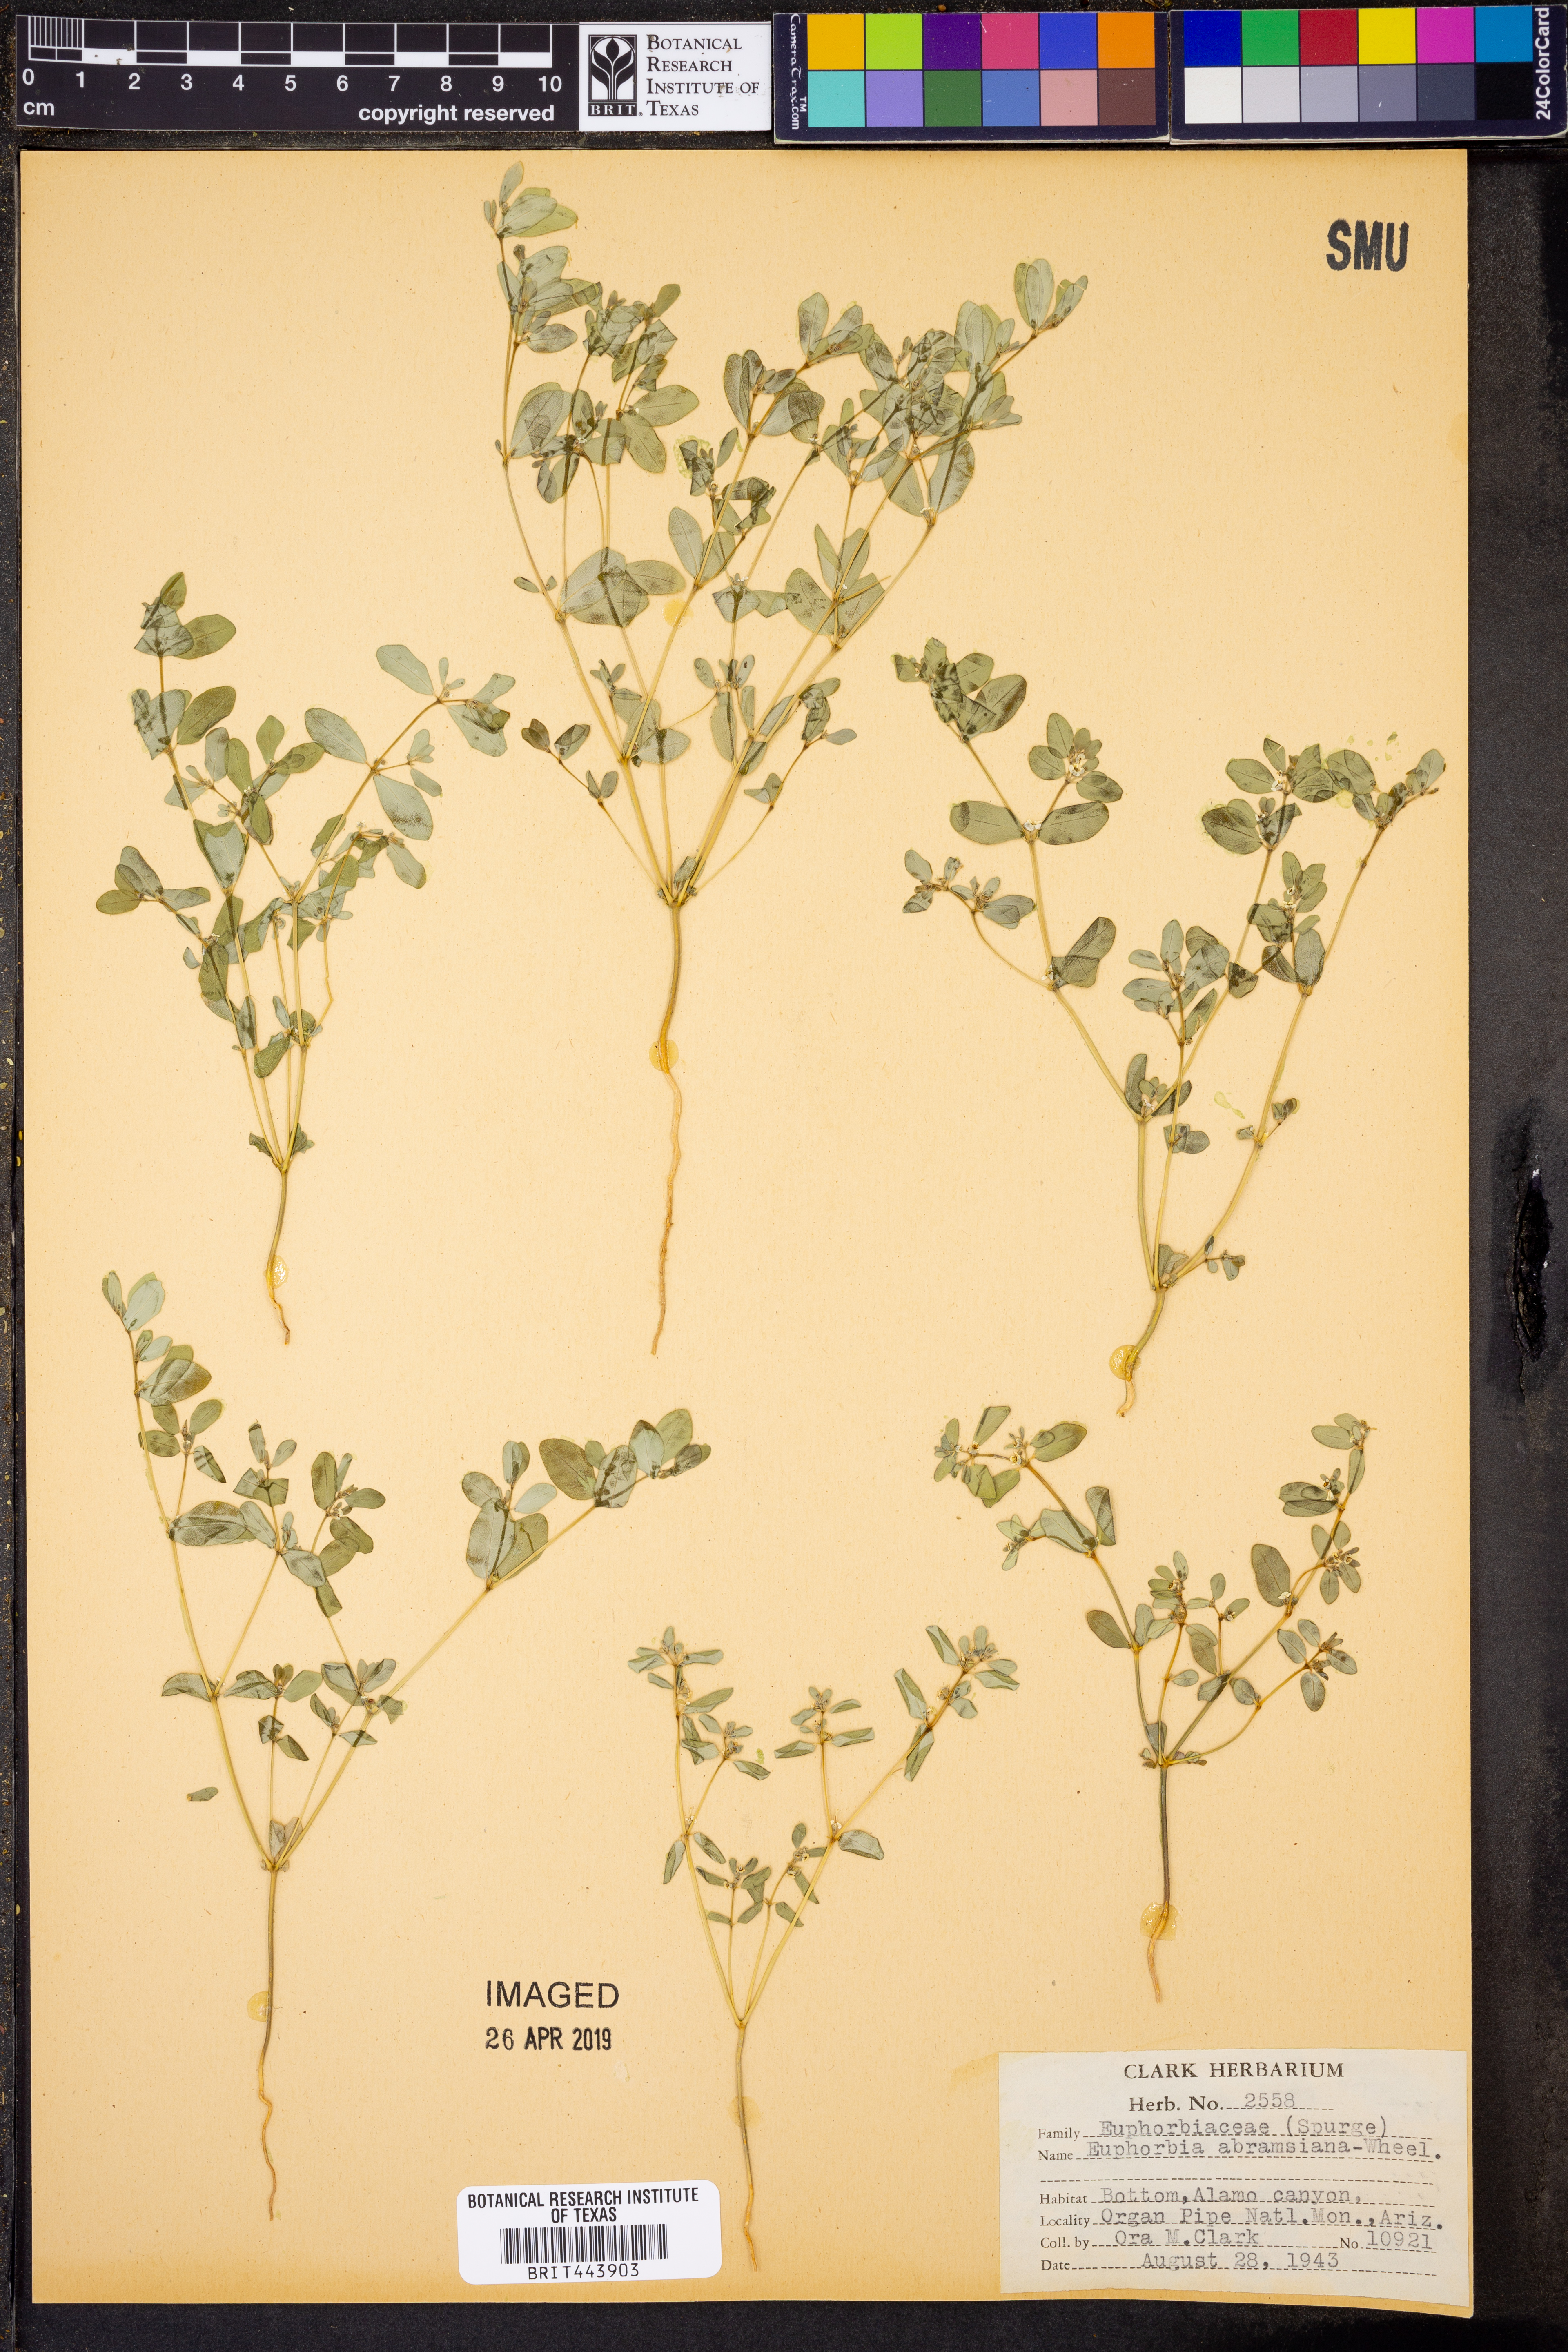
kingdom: Plantae
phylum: Tracheophyta
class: Magnoliopsida
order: Malpighiales
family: Euphorbiaceae
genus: Euphorbia
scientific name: Euphorbia abramsiana
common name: Abram's spurge
